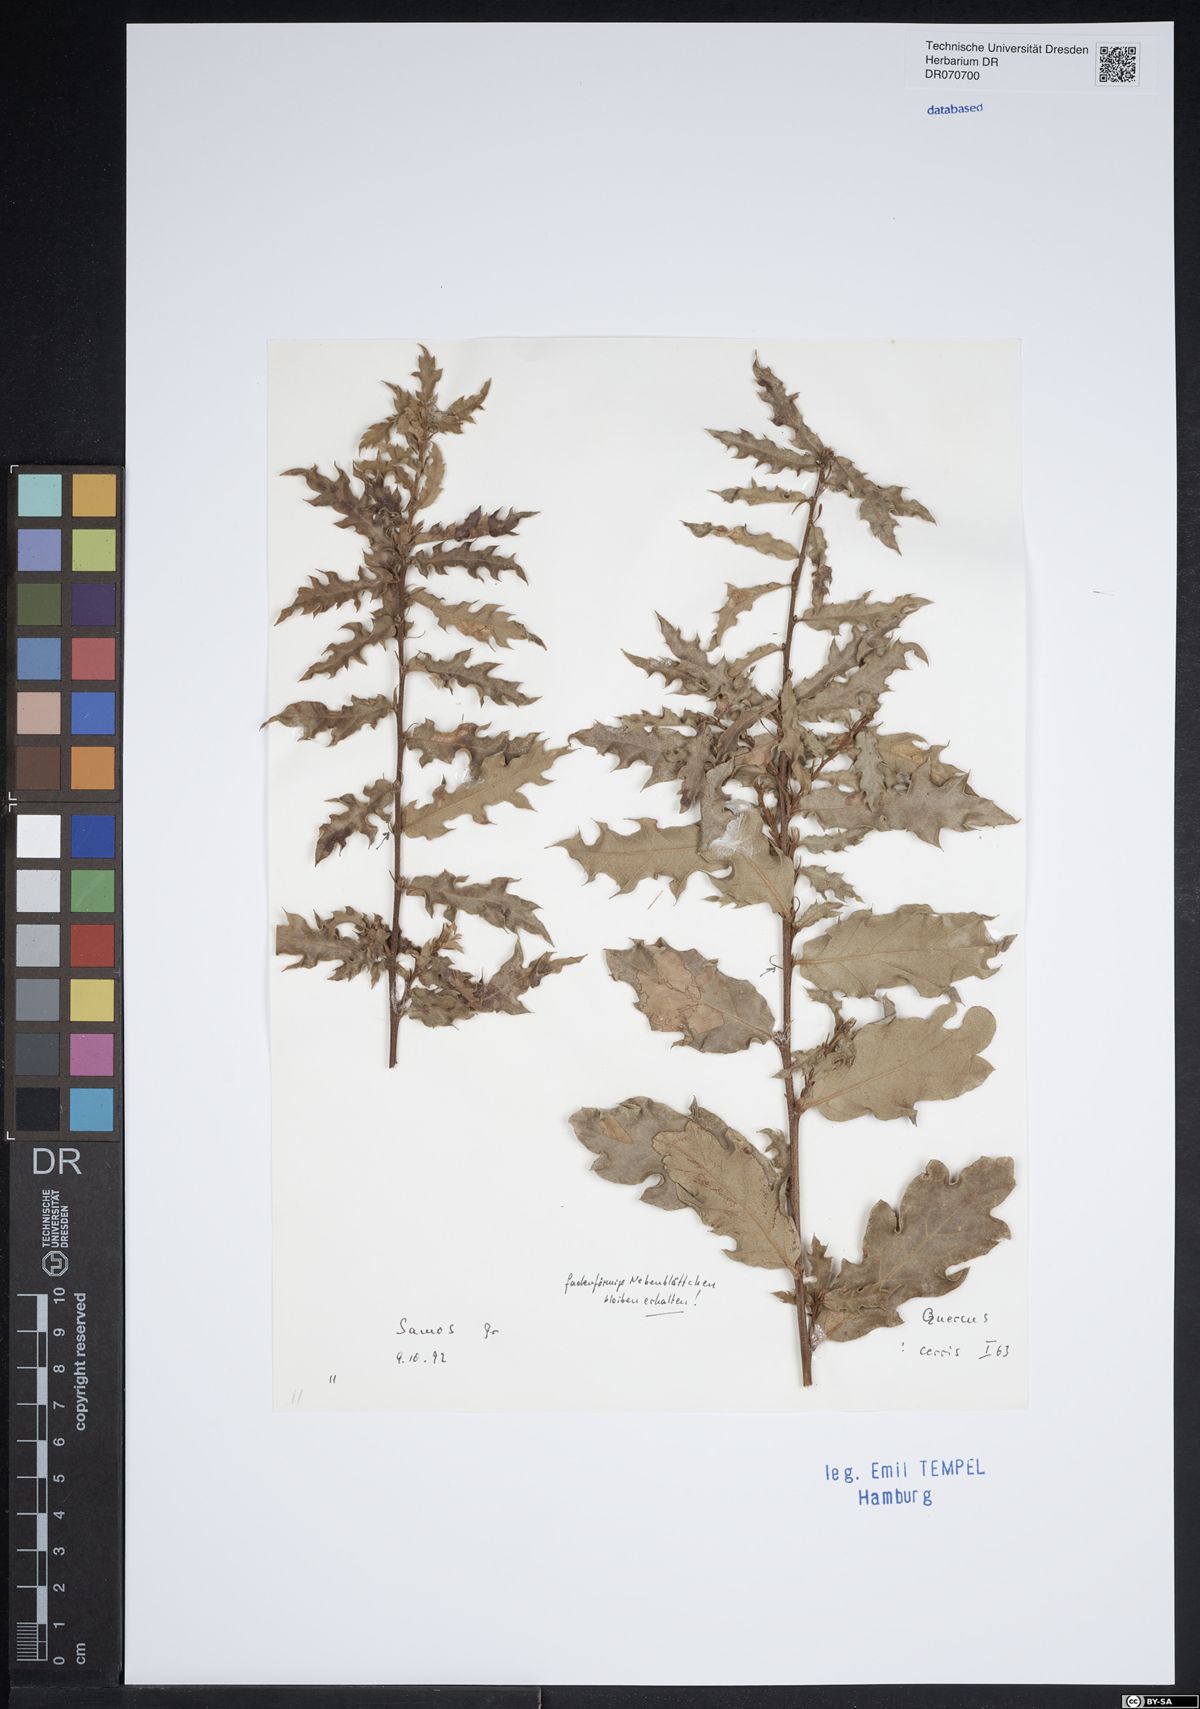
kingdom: Plantae
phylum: Tracheophyta
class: Magnoliopsida
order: Fagales
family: Fagaceae
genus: Quercus
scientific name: Quercus cerris
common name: Turkey oak
